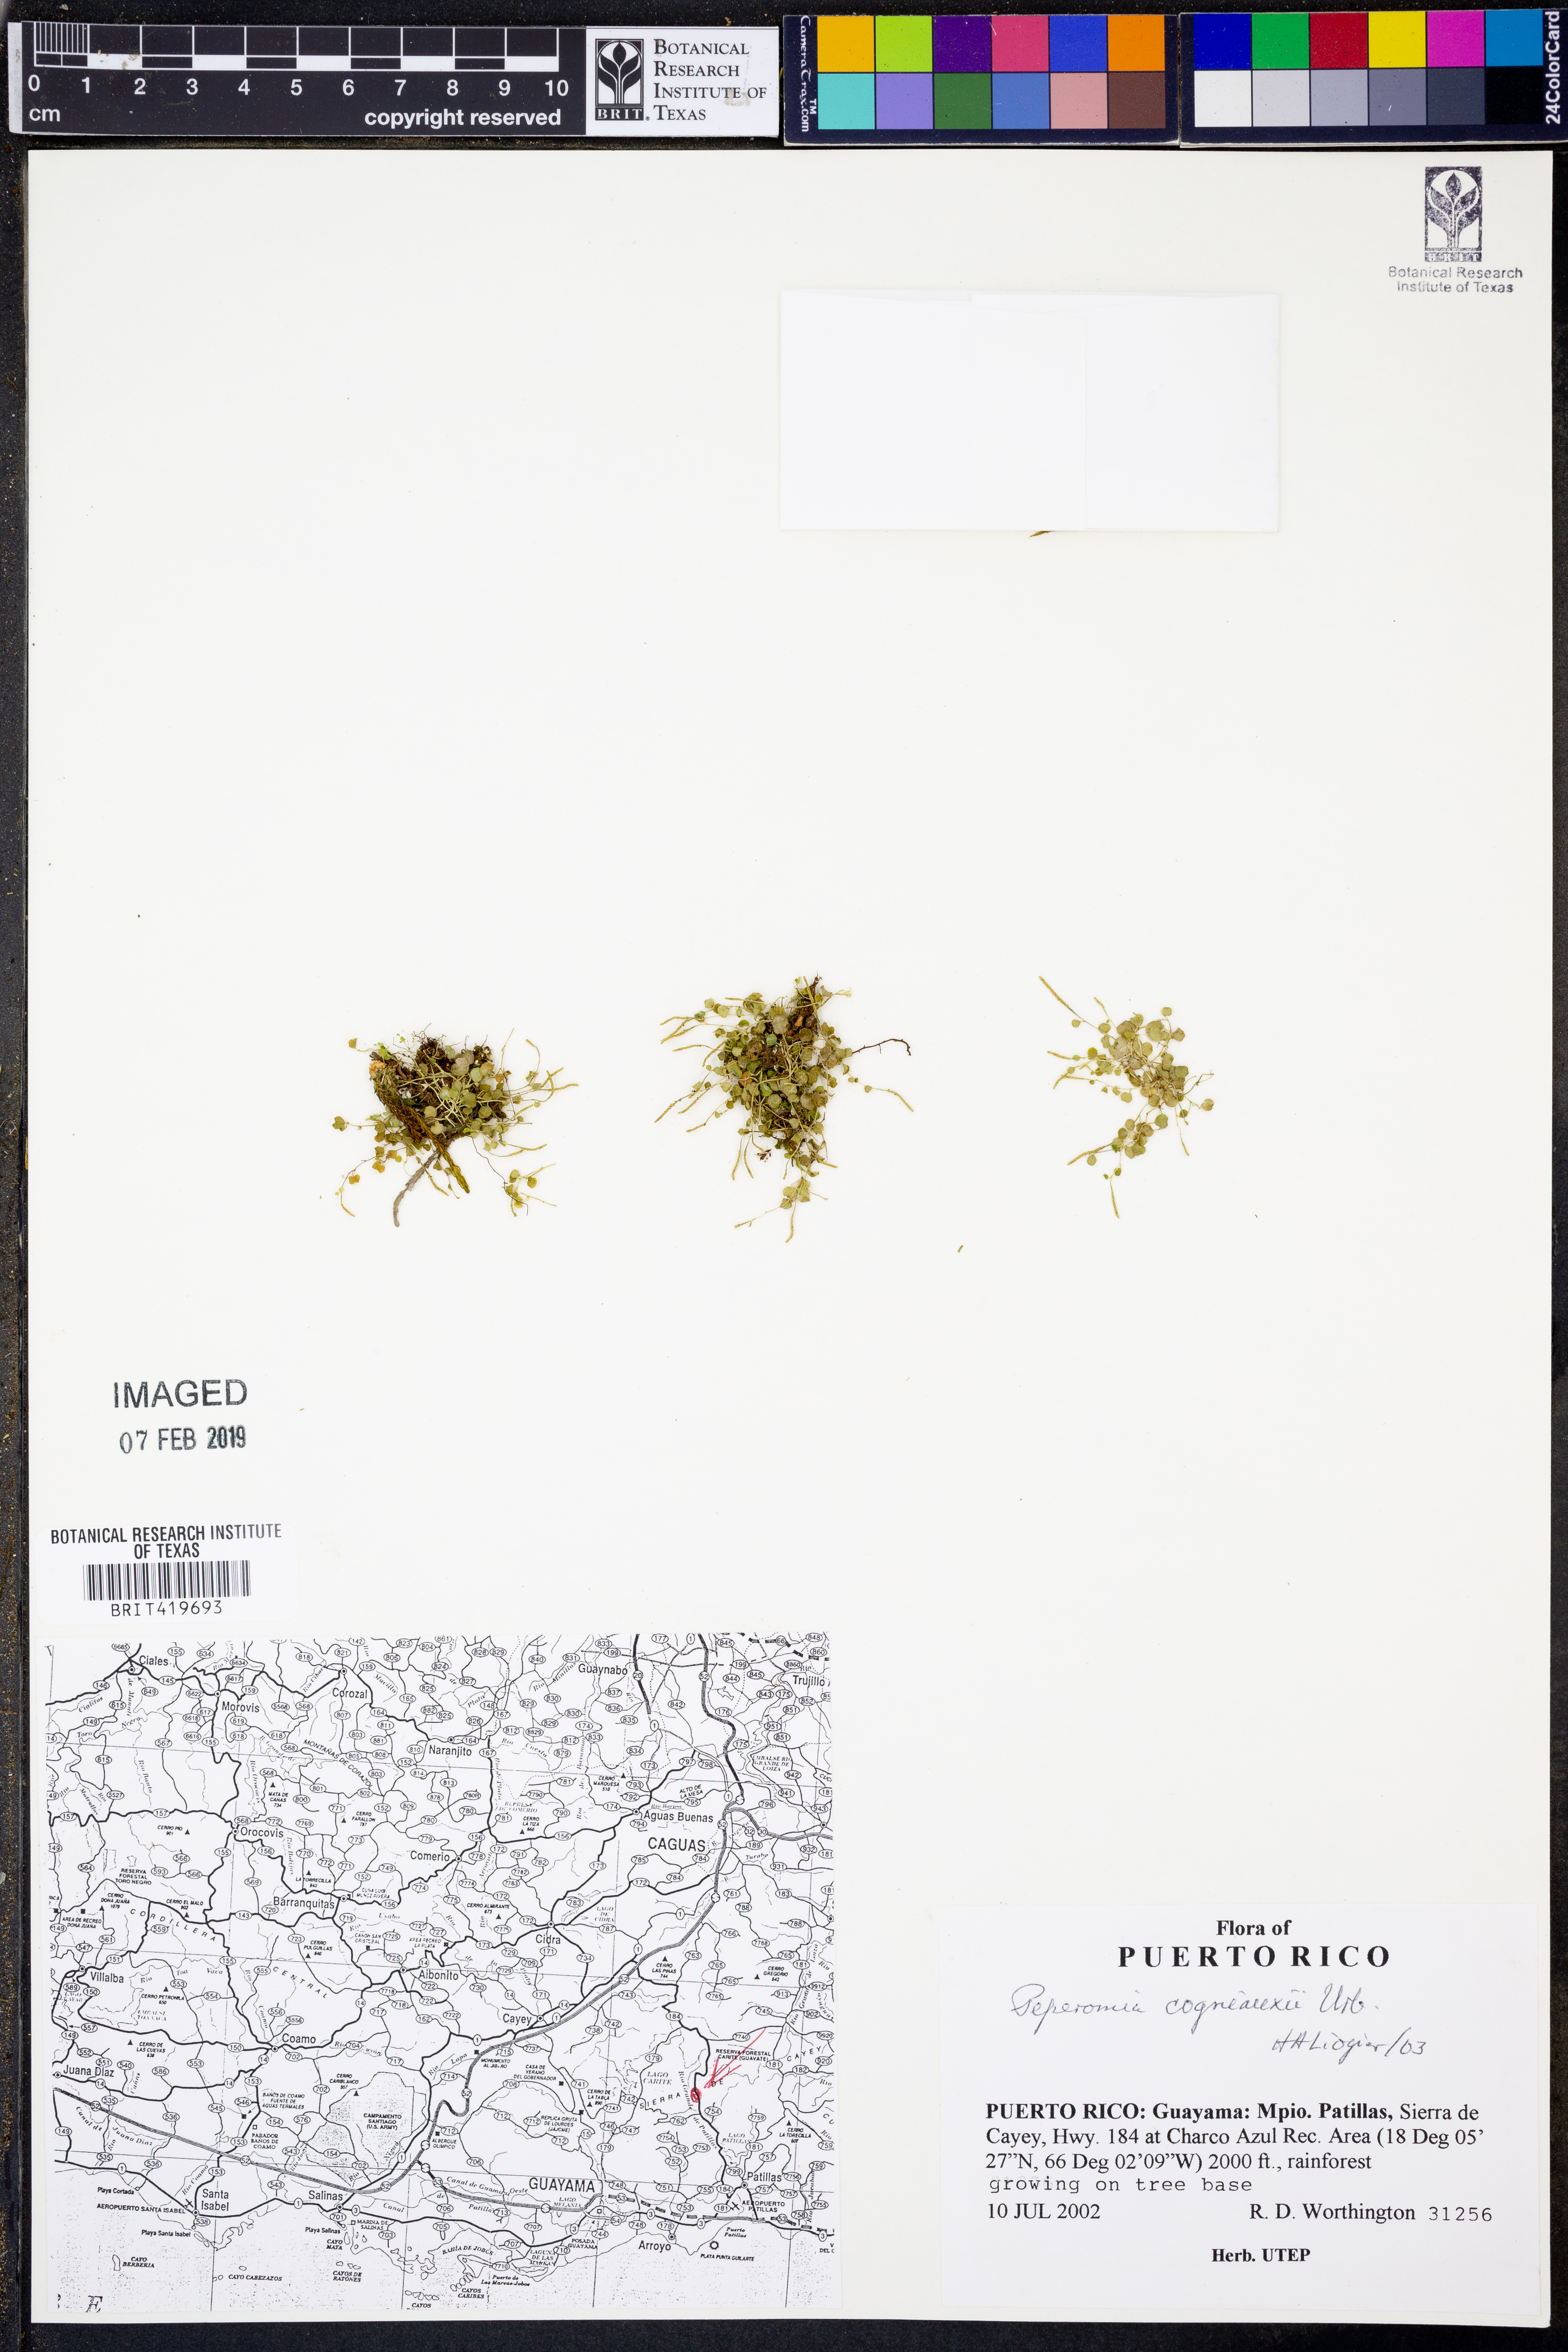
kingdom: Plantae
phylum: Tracheophyta
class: Magnoliopsida
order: Piperales
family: Piperaceae
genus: Peperomia
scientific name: Peperomia cogniauxii
